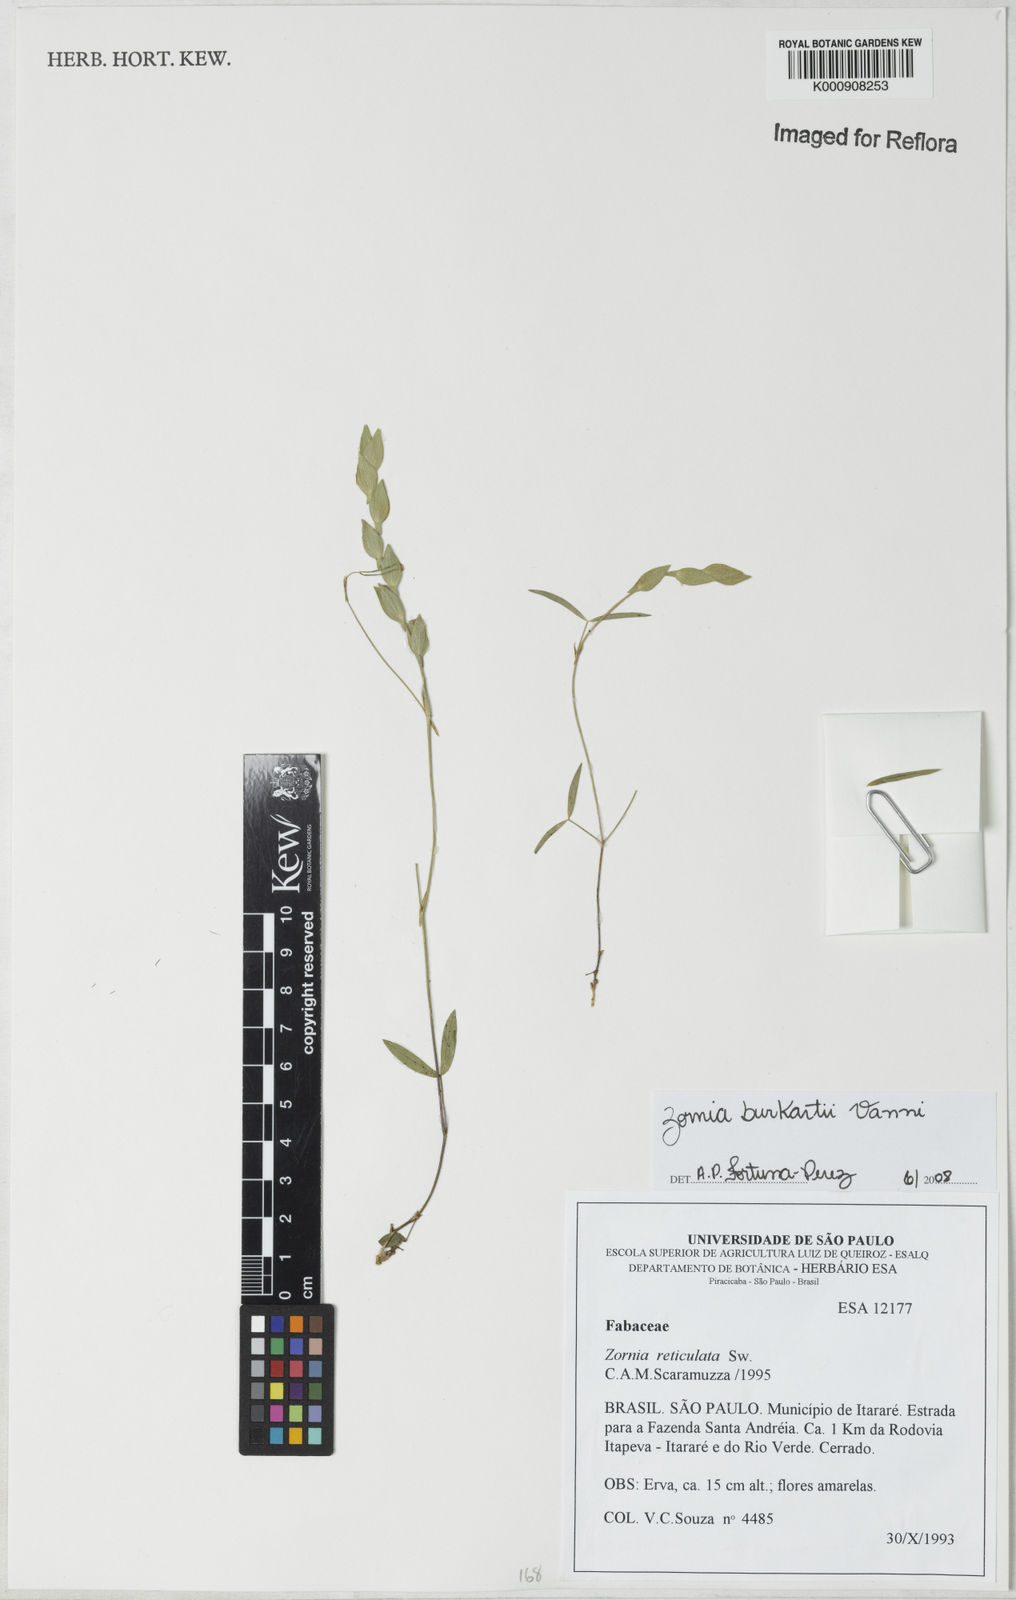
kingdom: Plantae
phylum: Tracheophyta
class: Magnoliopsida
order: Fabales
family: Fabaceae
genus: Zornia
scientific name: Zornia burkartii
